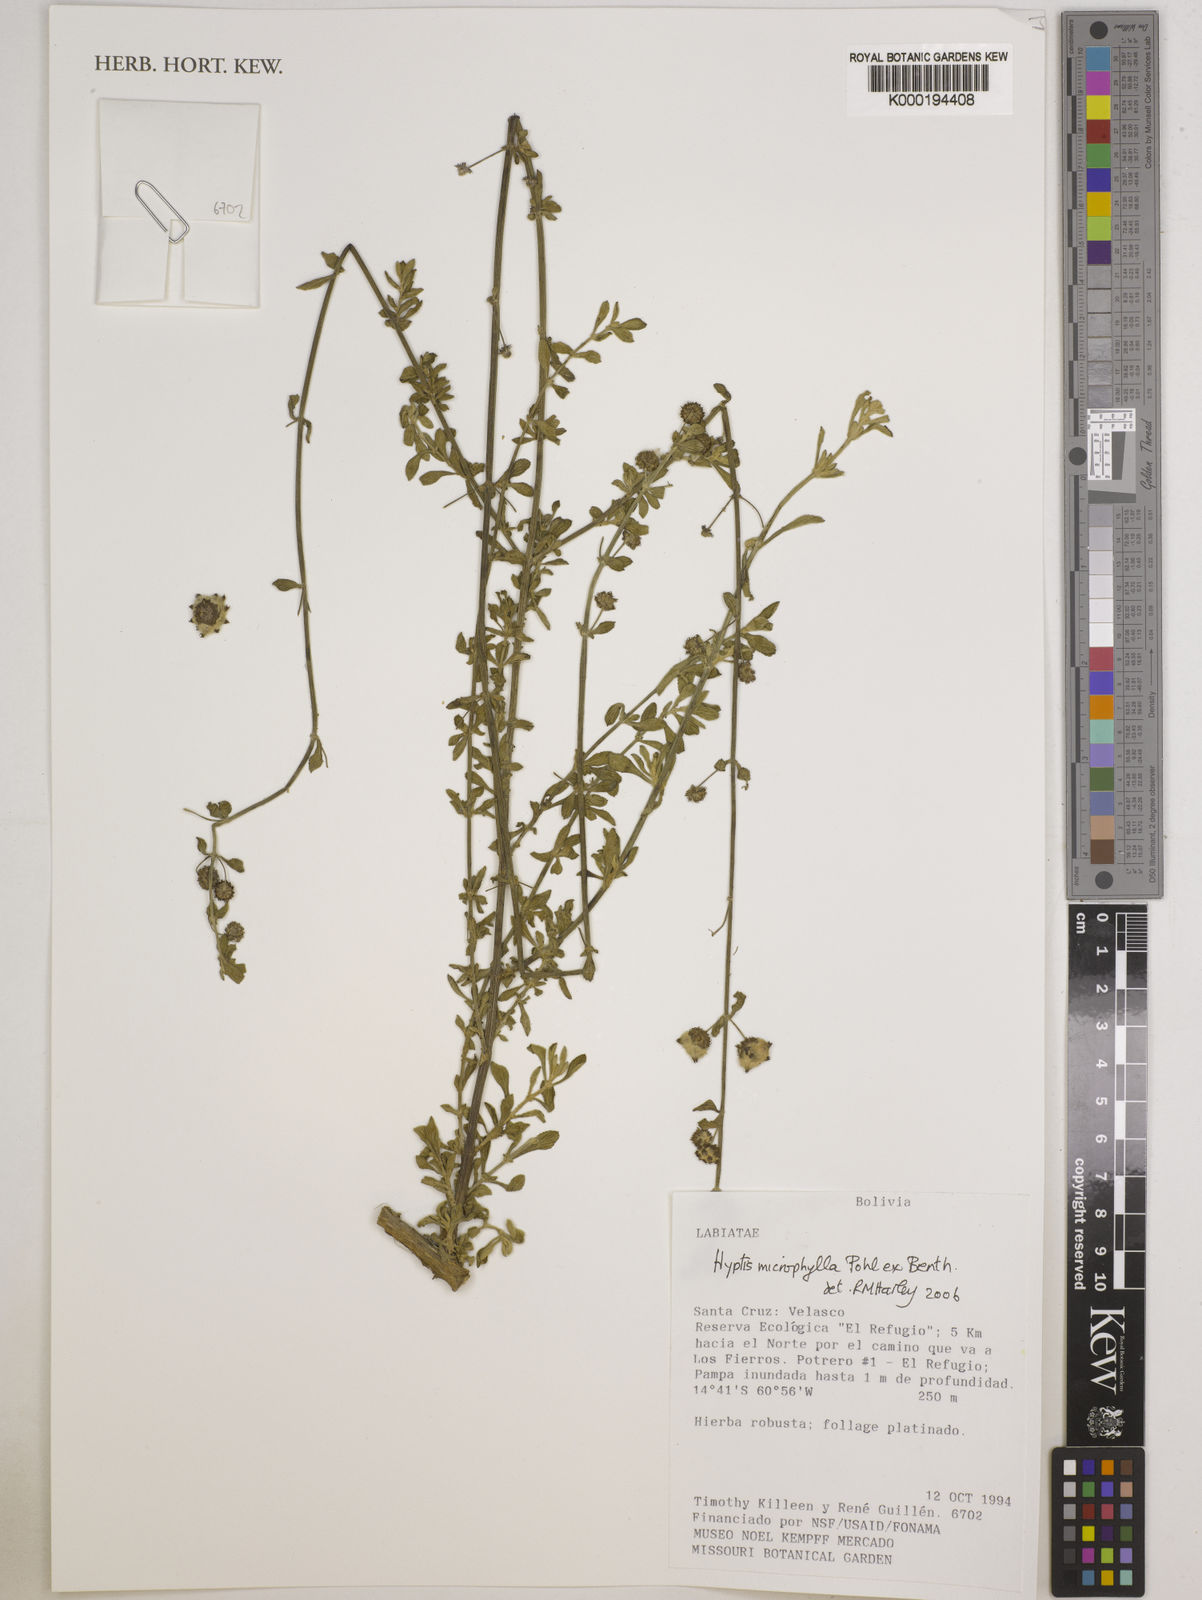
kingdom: Plantae
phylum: Tracheophyta
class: Magnoliopsida
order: Lamiales
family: Lamiaceae
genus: Hyptis
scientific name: Hyptis microphylla
